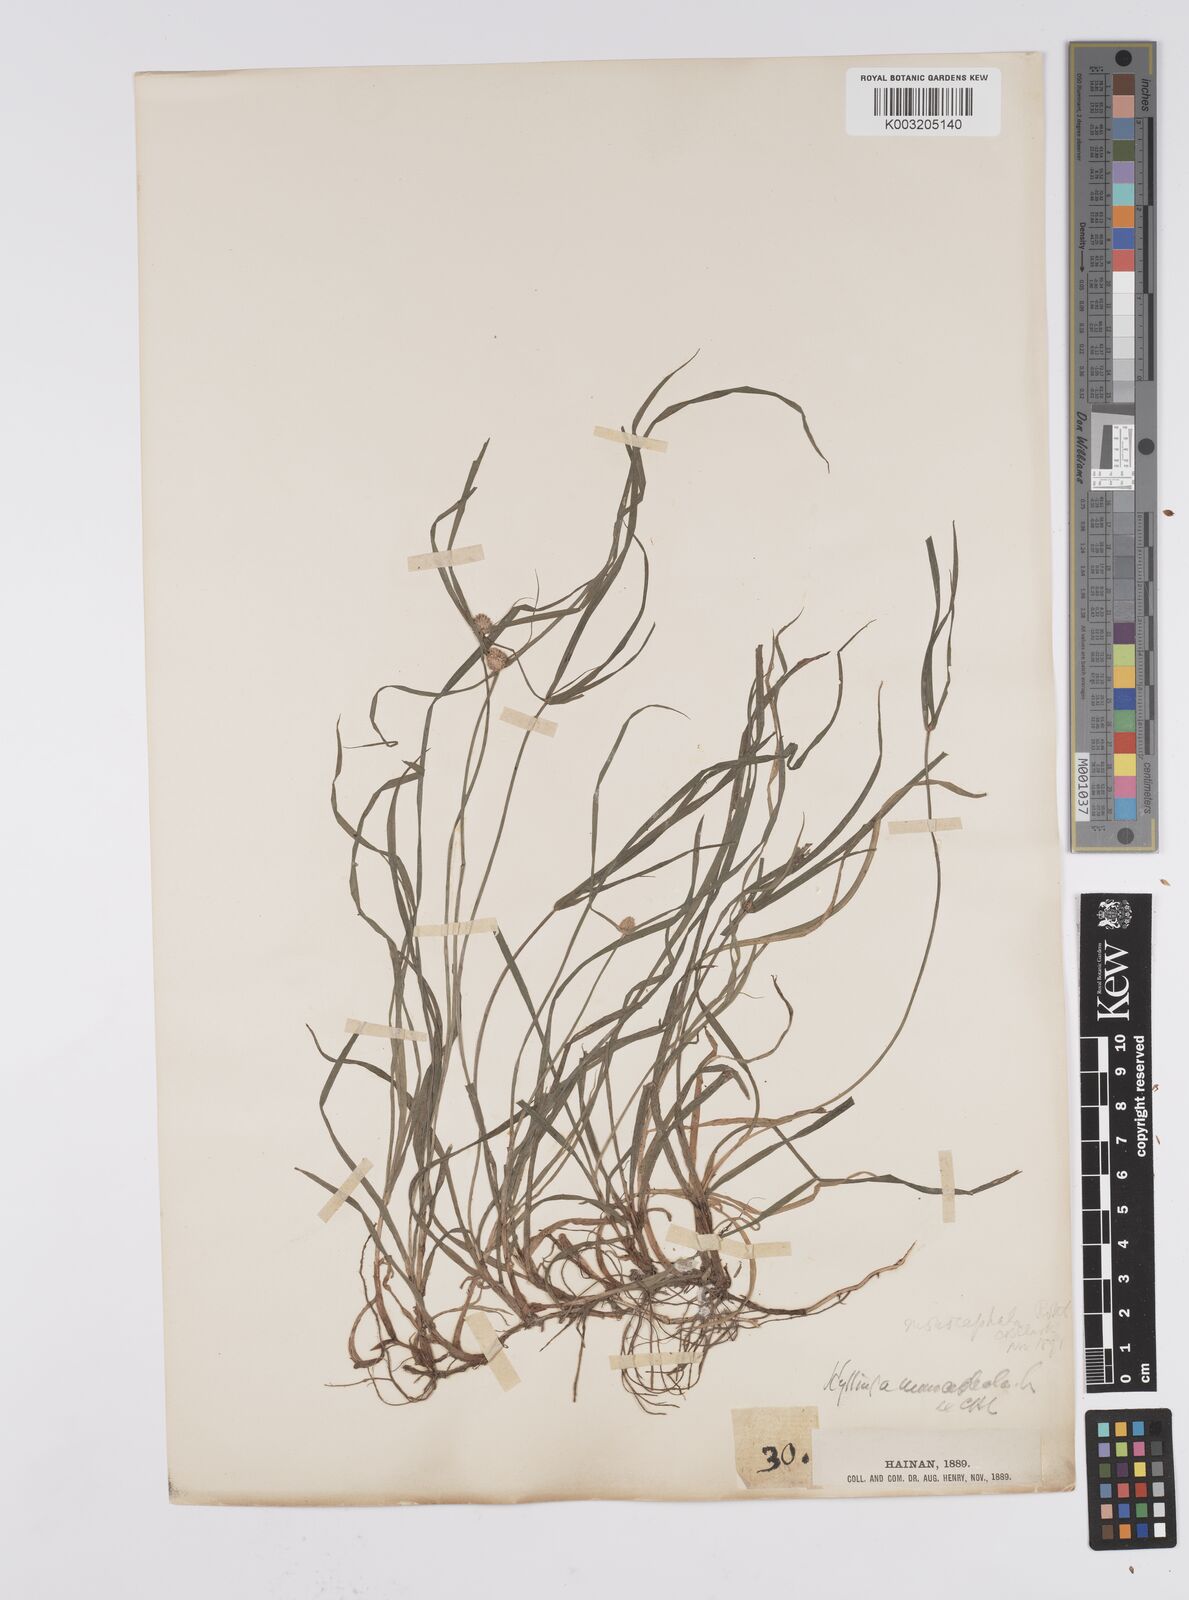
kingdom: Plantae
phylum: Tracheophyta
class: Liliopsida
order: Poales
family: Cyperaceae
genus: Cyperus
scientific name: Cyperus nemoralis
